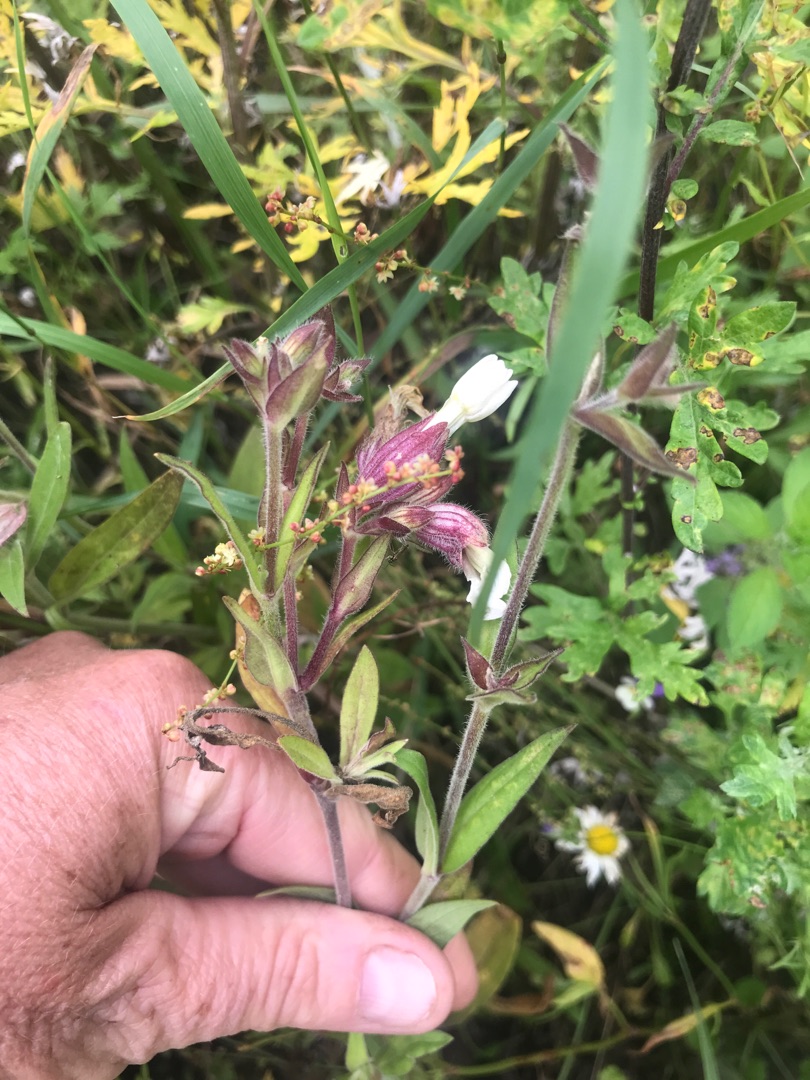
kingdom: Plantae
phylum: Tracheophyta
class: Magnoliopsida
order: Caryophyllales
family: Caryophyllaceae
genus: Silene
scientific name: Silene latifolia
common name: Aftenpragtstjerne
